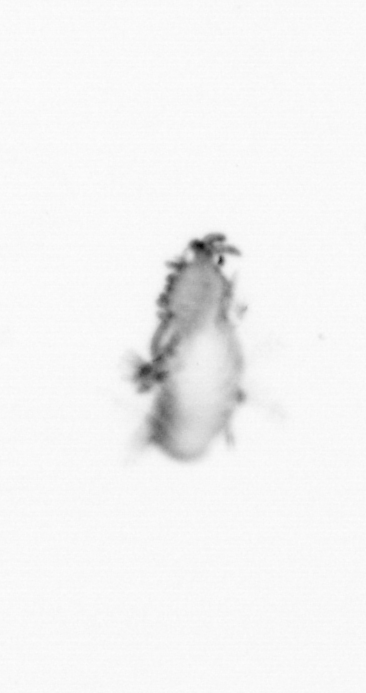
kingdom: Animalia
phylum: Annelida
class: Polychaeta
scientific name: Polychaeta
